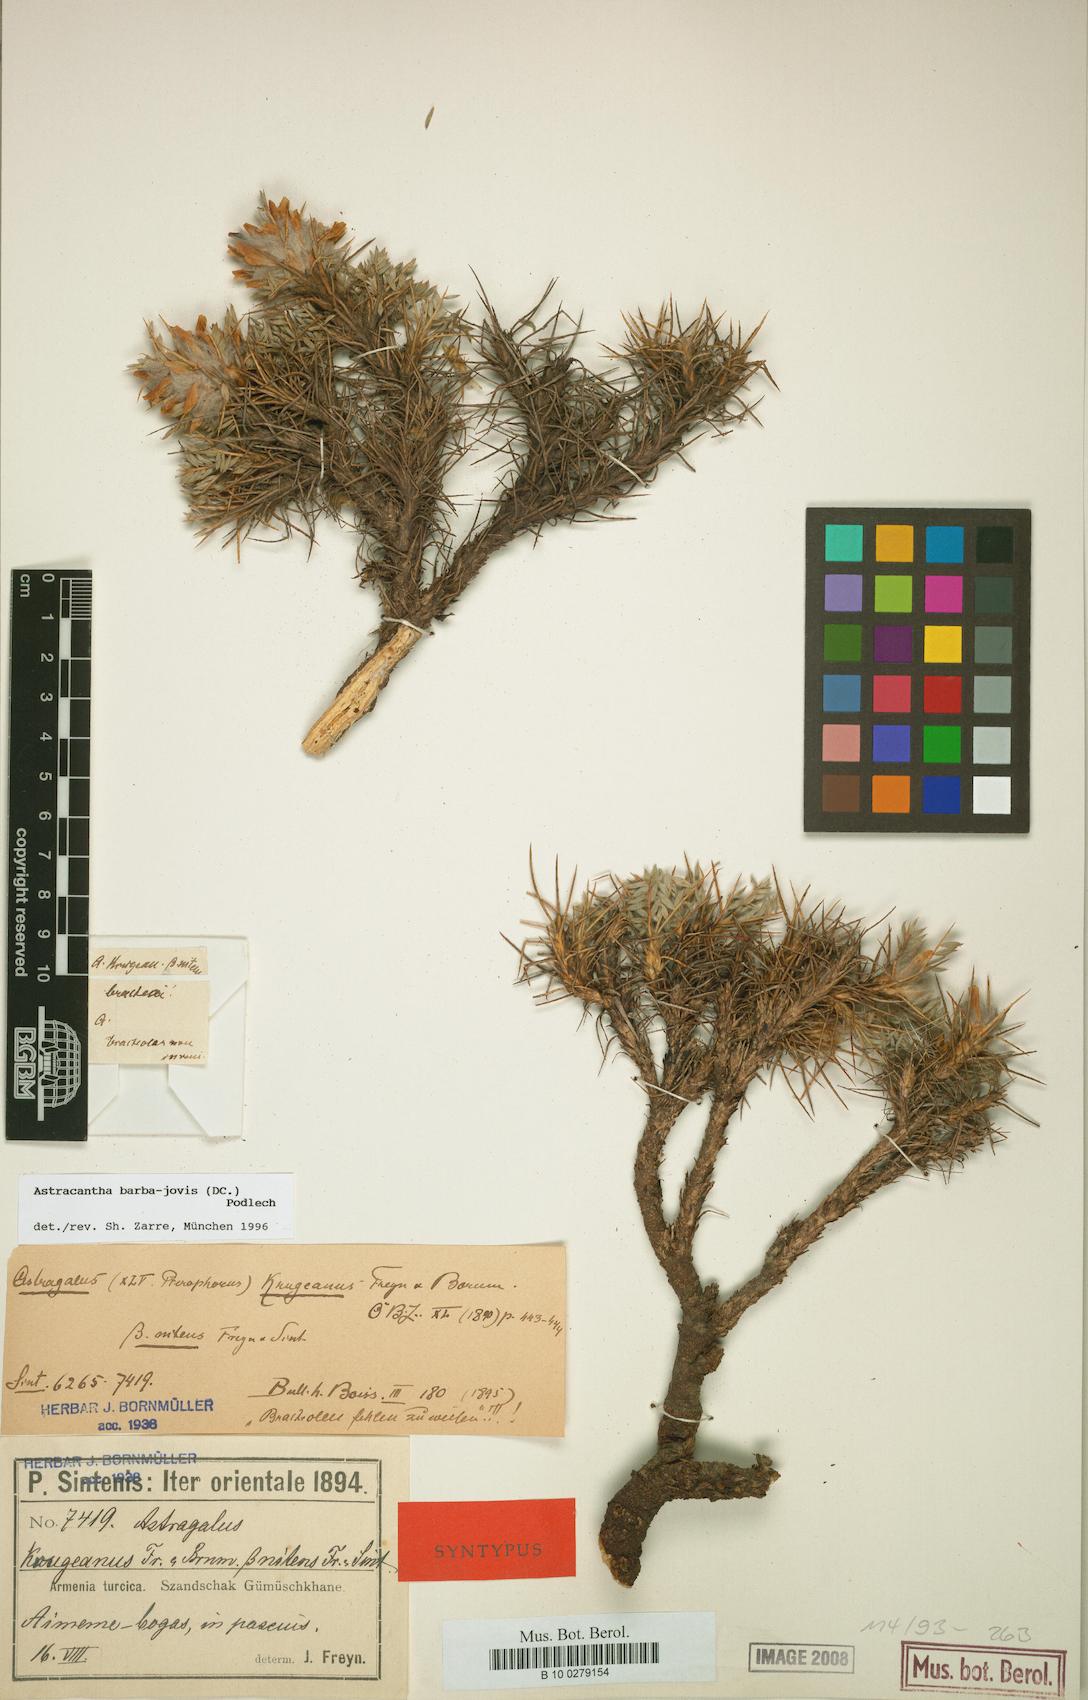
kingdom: Plantae
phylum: Tracheophyta
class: Magnoliopsida
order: Fabales
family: Fabaceae
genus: Astragalus
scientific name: Astragalus barba-jovis
